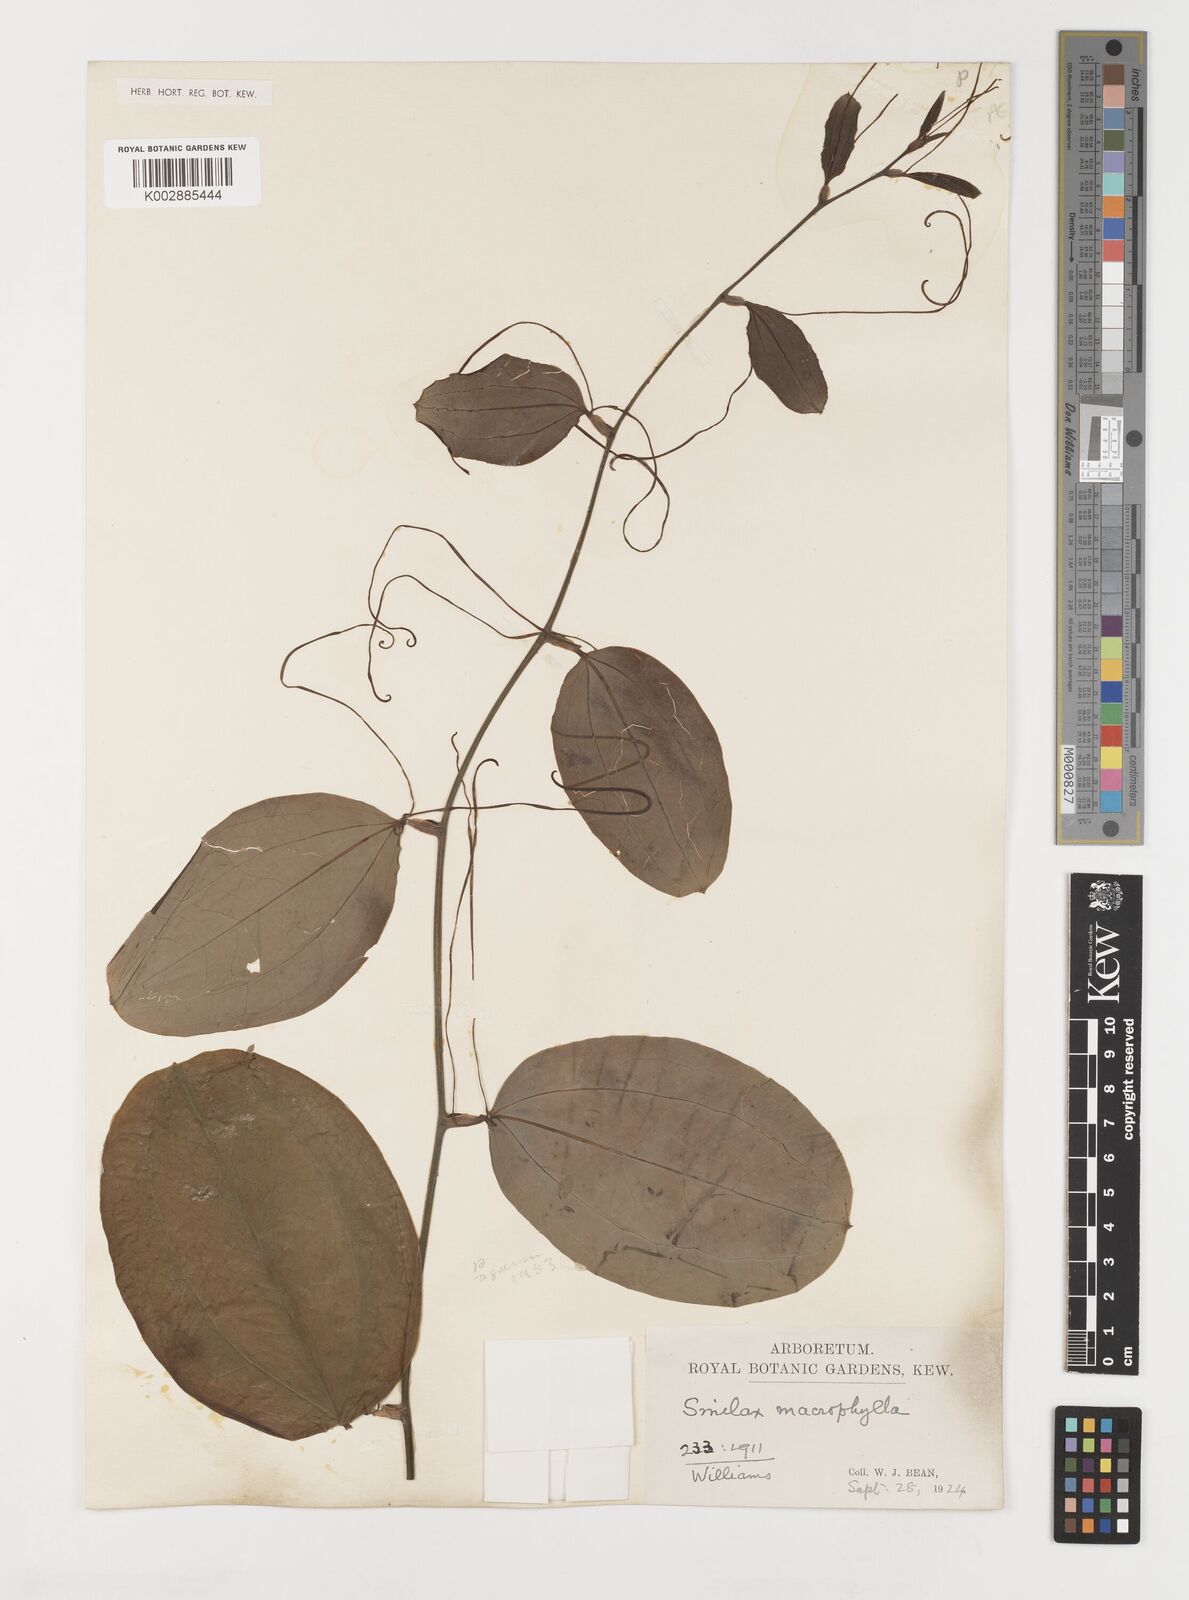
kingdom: Plantae
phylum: Tracheophyta
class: Liliopsida
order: Liliales
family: Smilacaceae
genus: Smilax
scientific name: Smilax
